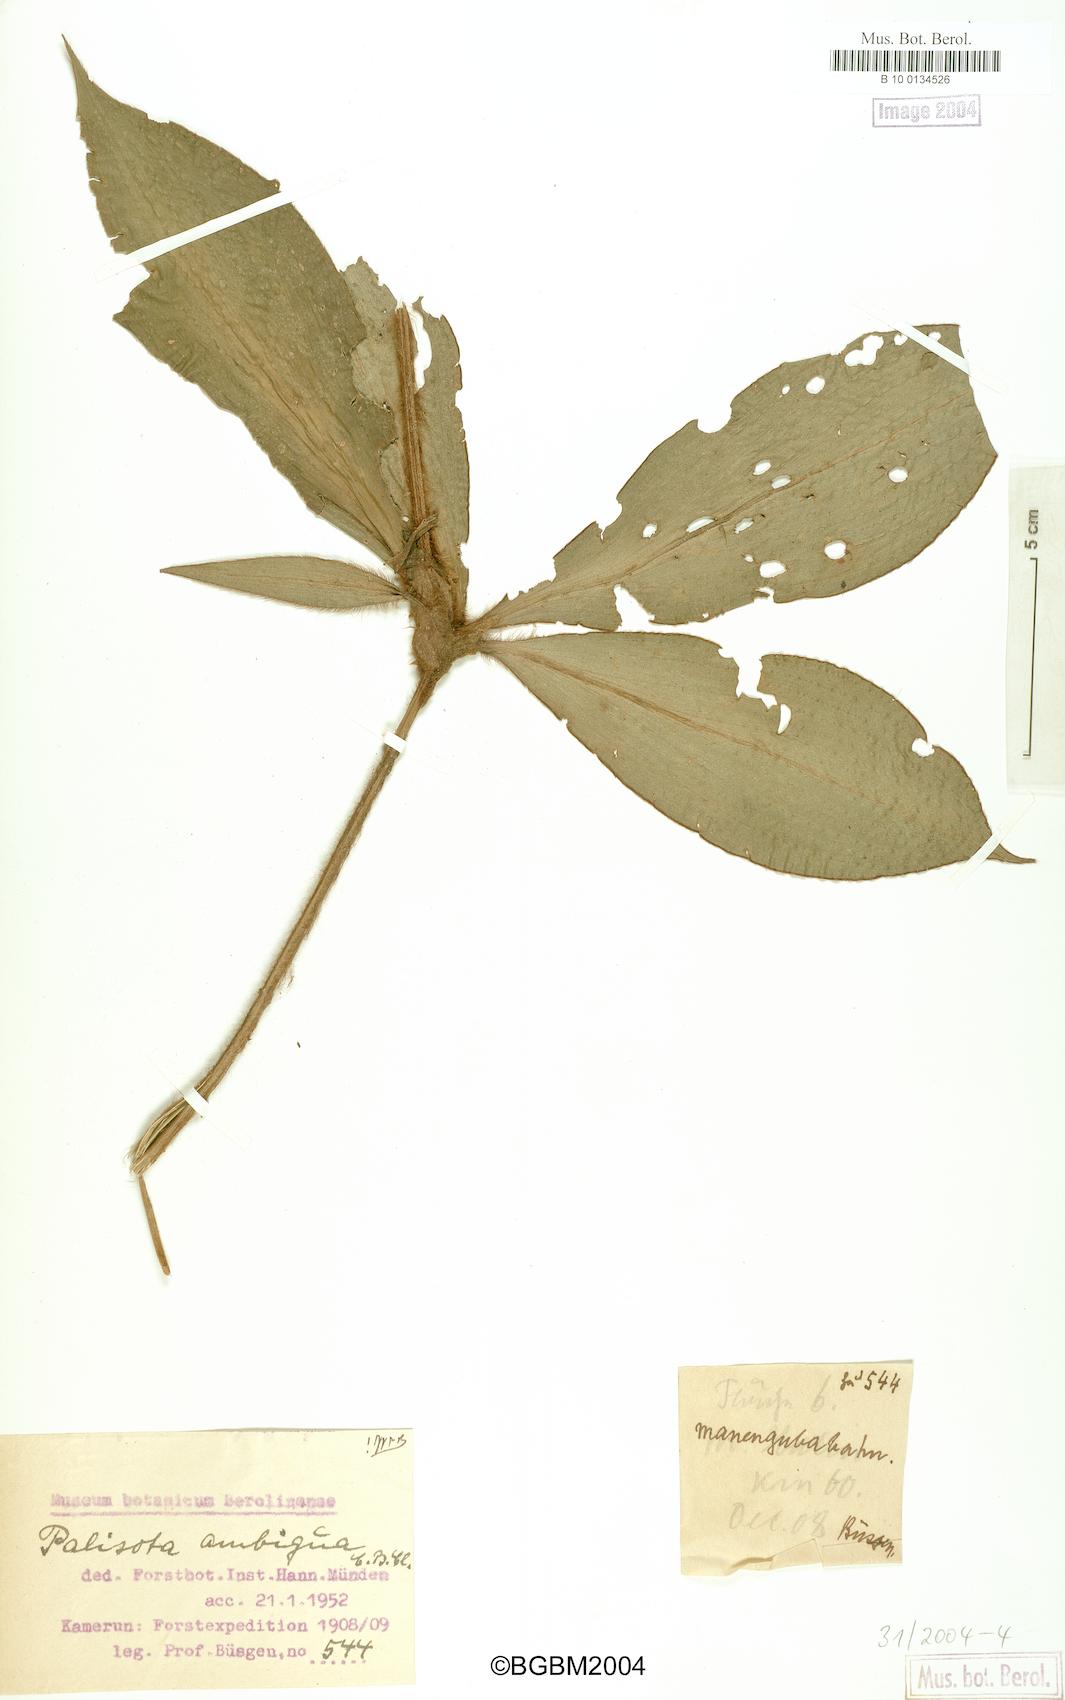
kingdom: Plantae
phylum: Tracheophyta
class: Liliopsida
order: Commelinales
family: Commelinaceae
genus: Palisota
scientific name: Palisota ambigua
